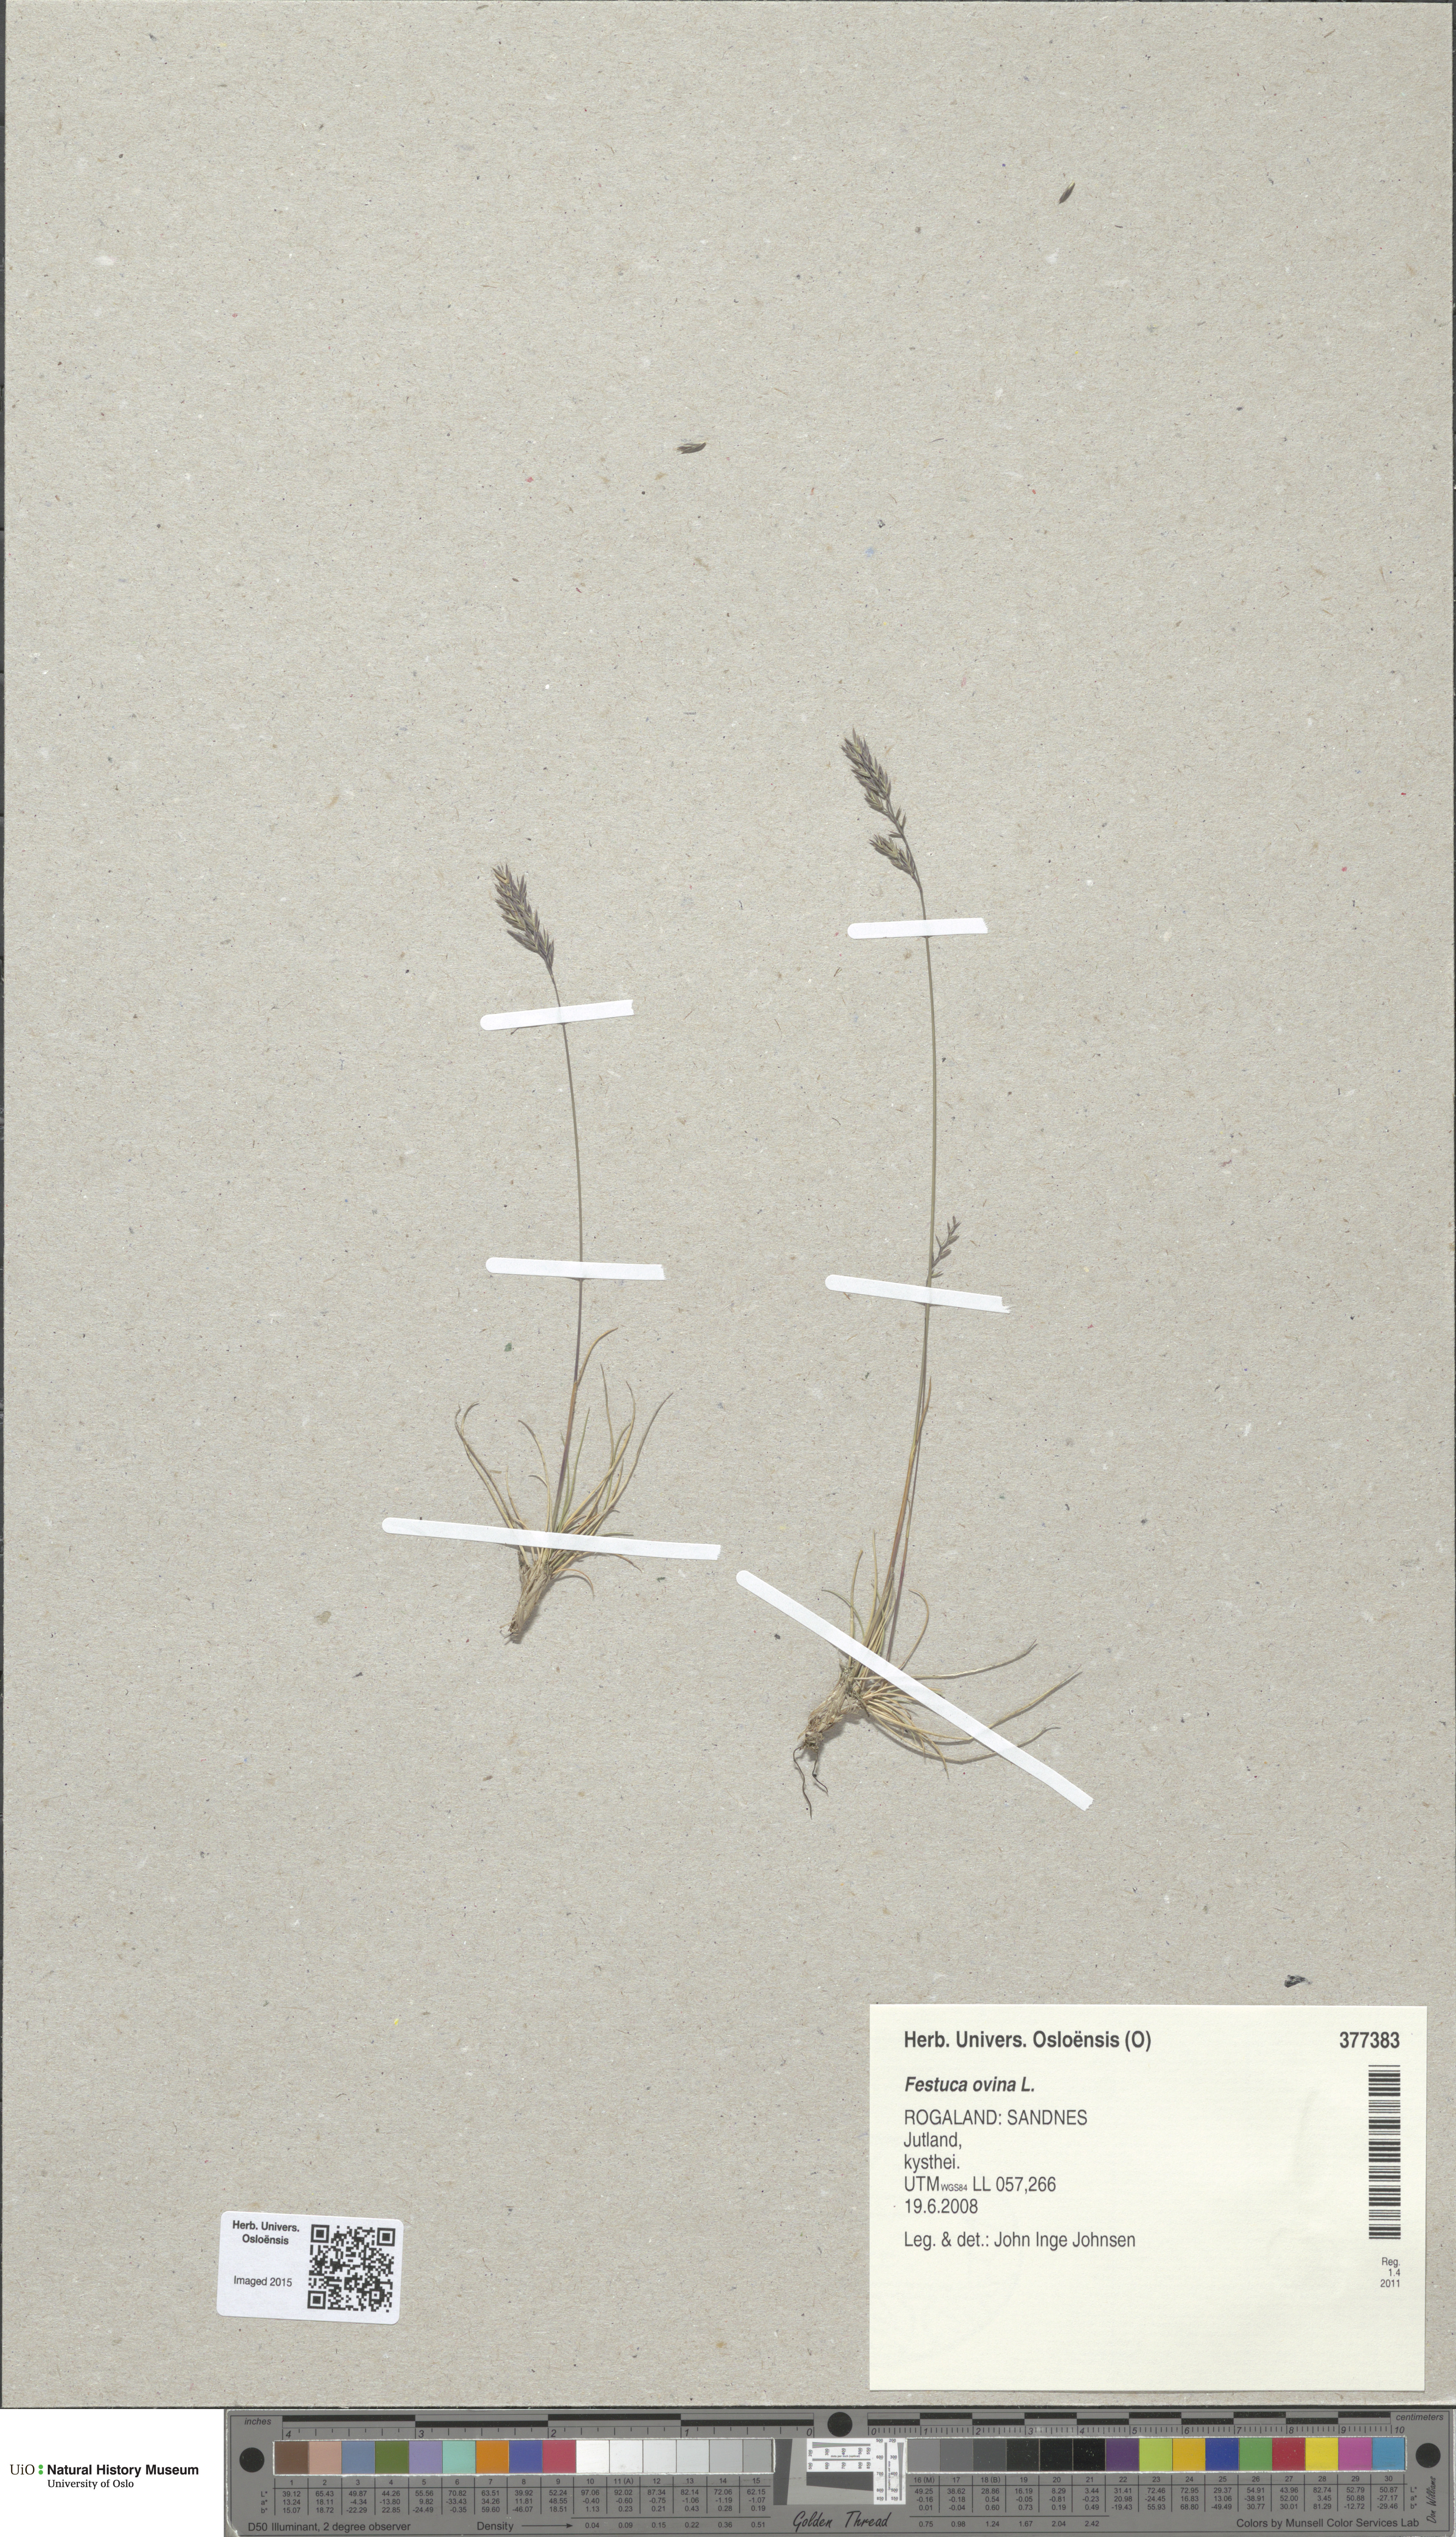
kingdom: Plantae
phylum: Tracheophyta
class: Liliopsida
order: Poales
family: Poaceae
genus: Festuca
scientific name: Festuca ovina
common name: Sheep fescue
